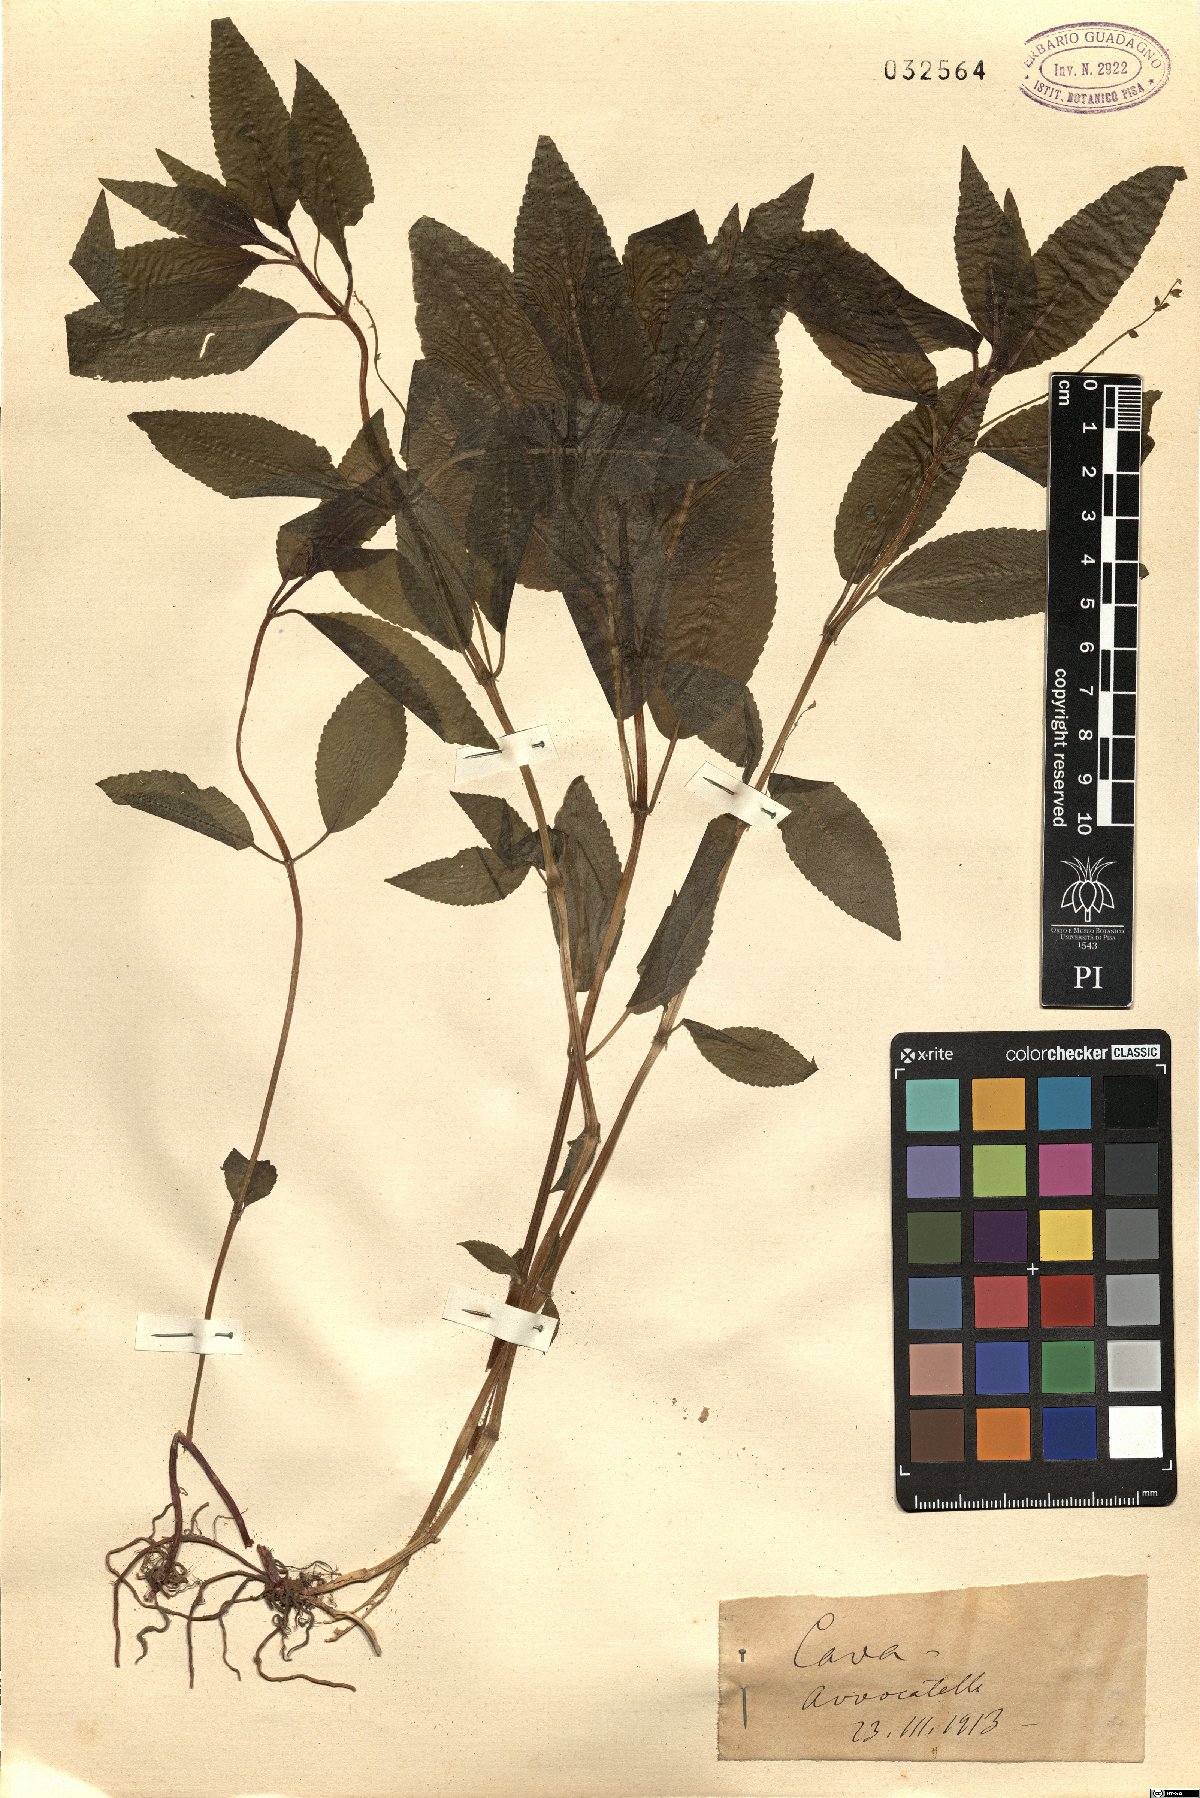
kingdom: Plantae
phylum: Tracheophyta
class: Magnoliopsida
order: Malpighiales
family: Euphorbiaceae
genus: Mercurialis
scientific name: Mercurialis
